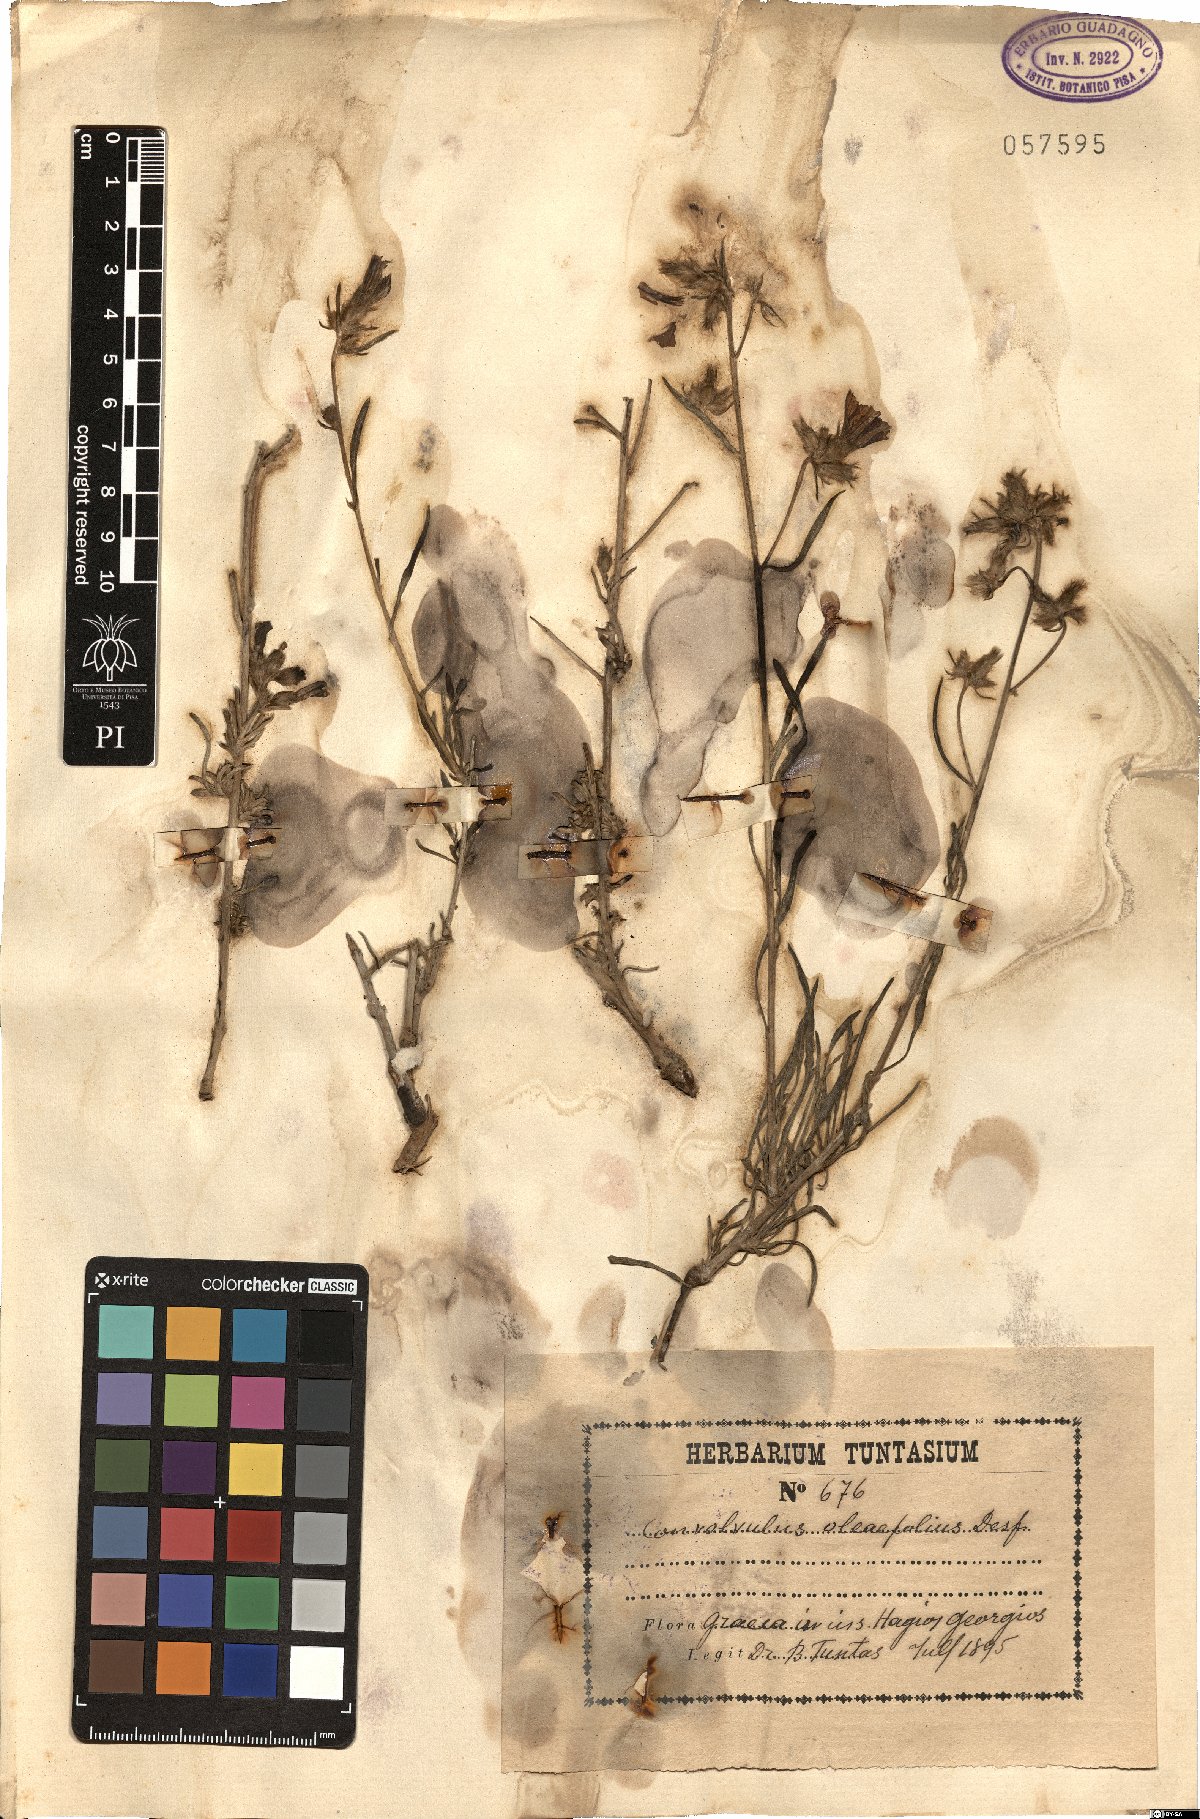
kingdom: Plantae
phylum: Tracheophyta
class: Magnoliopsida
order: Solanales
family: Convolvulaceae
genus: Convolvulus
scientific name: Convolvulus oleifolius
